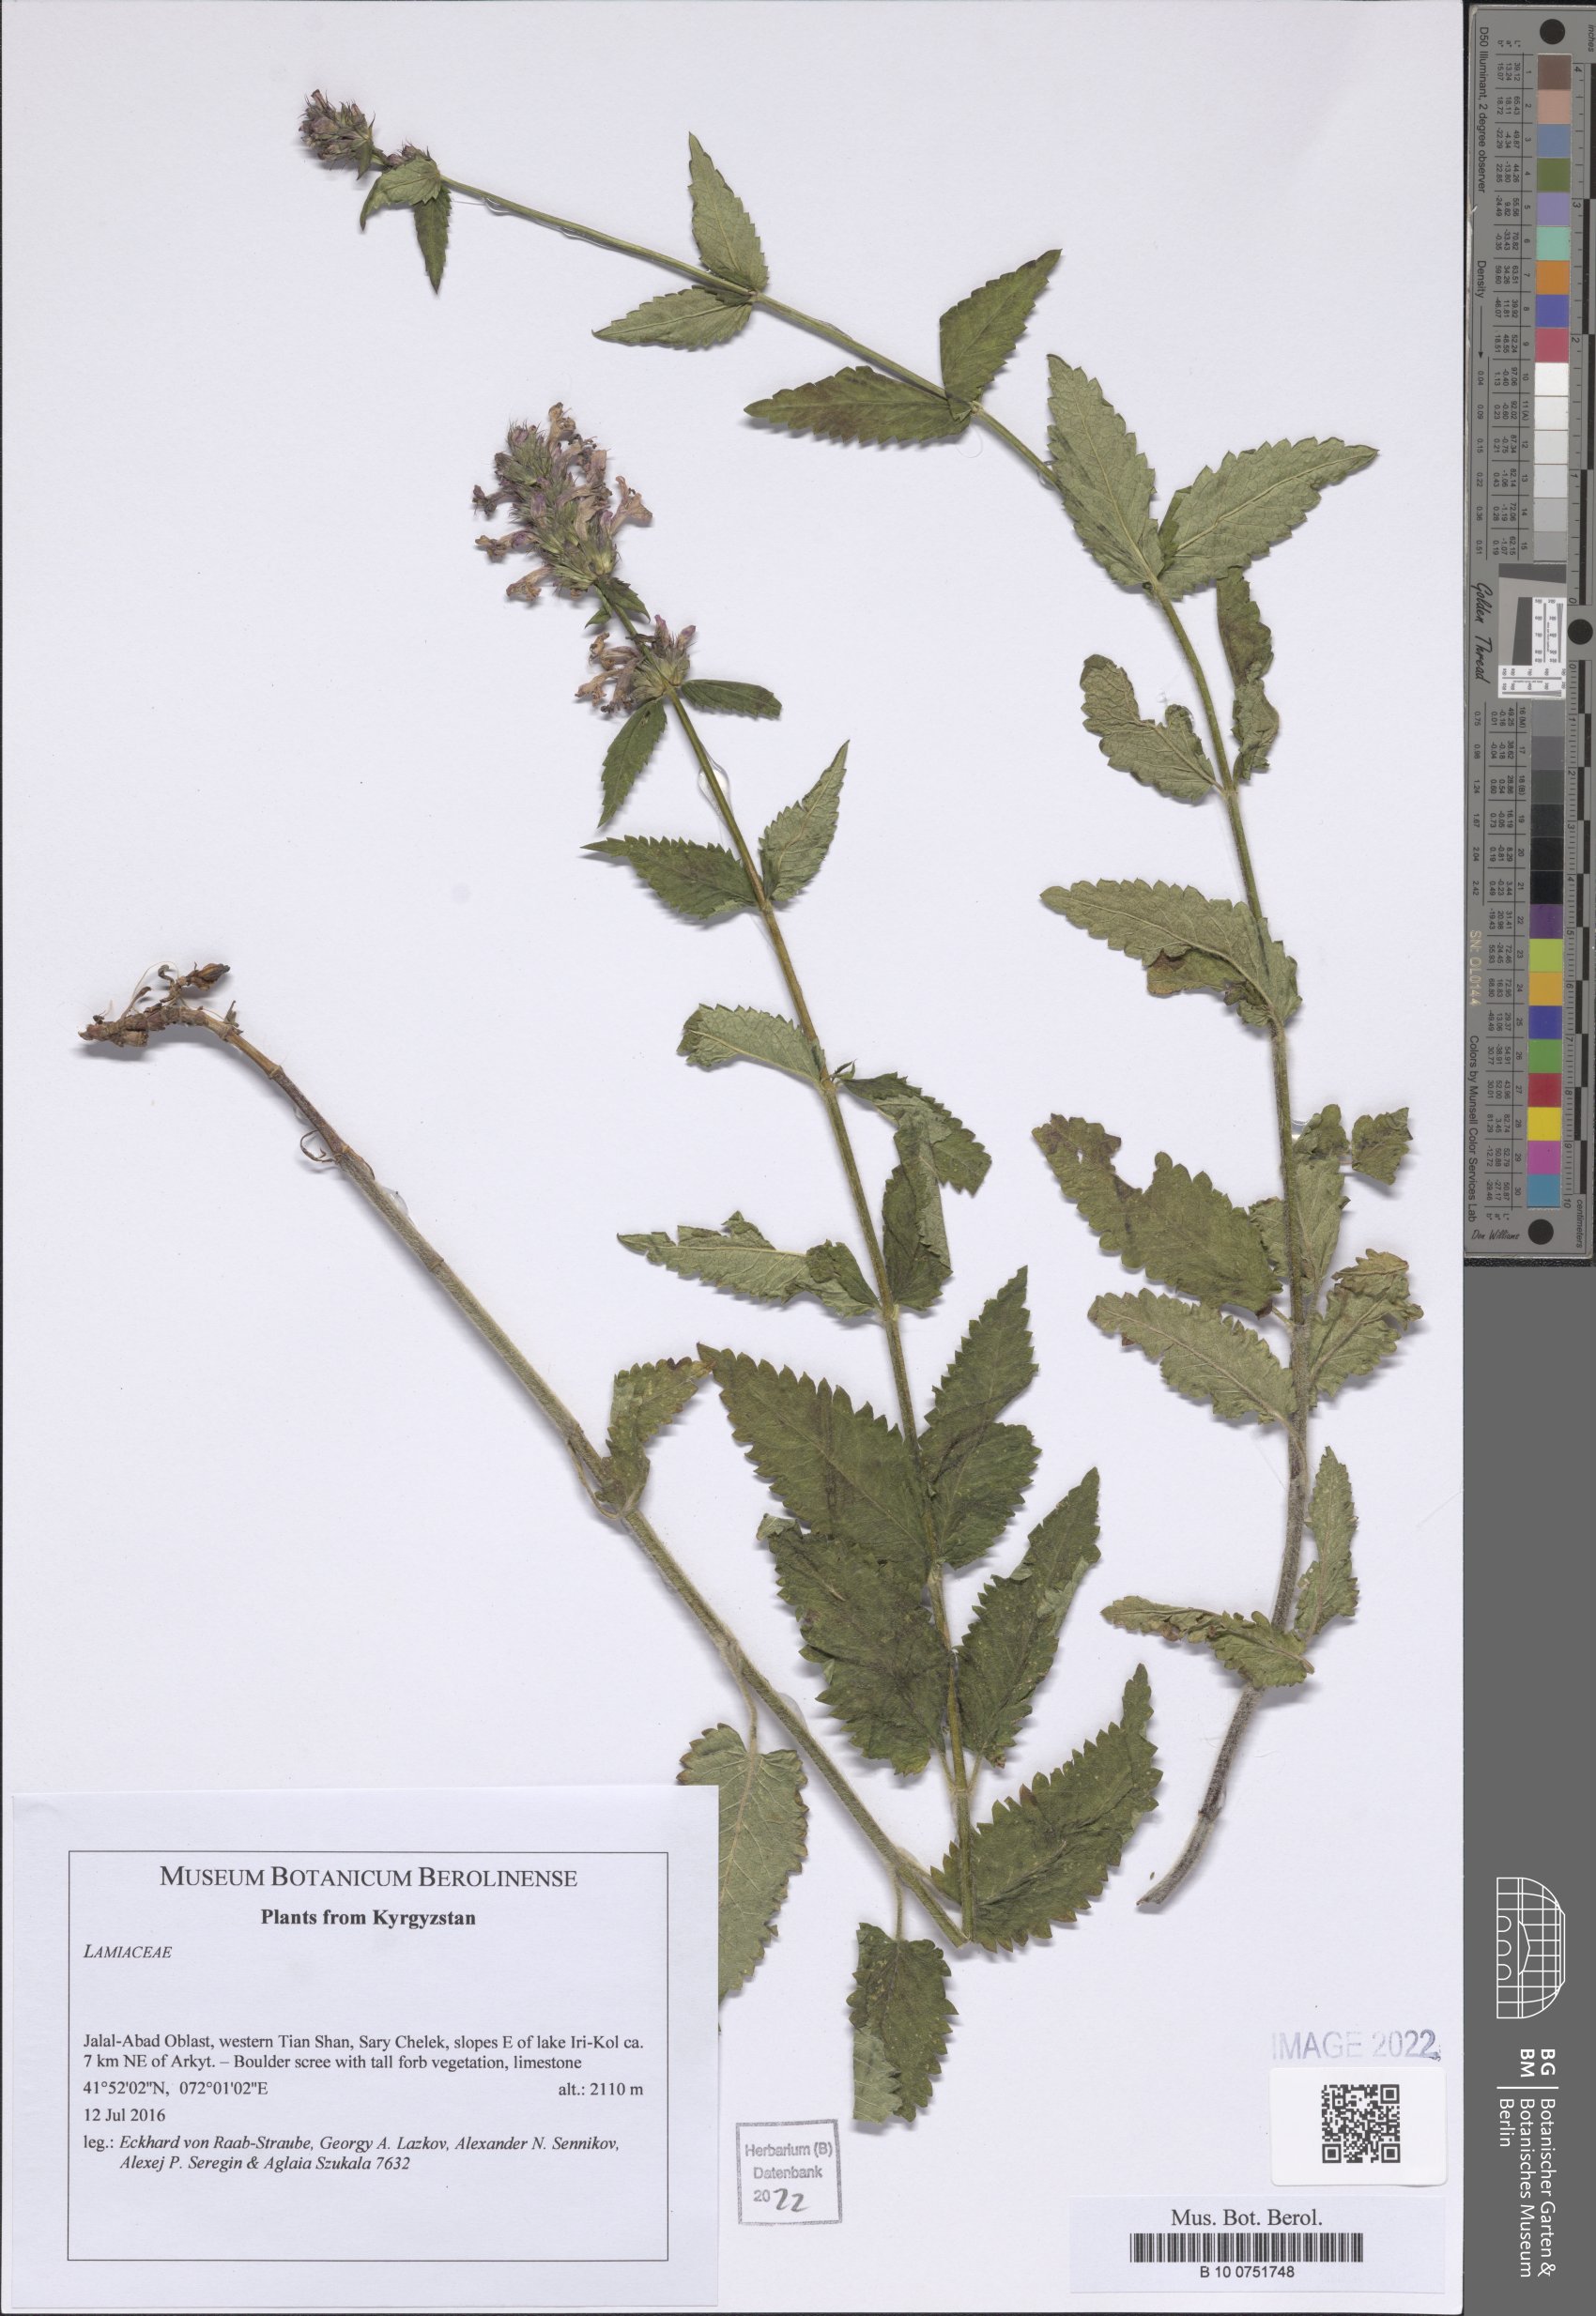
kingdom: Plantae
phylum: Tracheophyta
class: Magnoliopsida
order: Lamiales
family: Lamiaceae
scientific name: Lamiaceae
